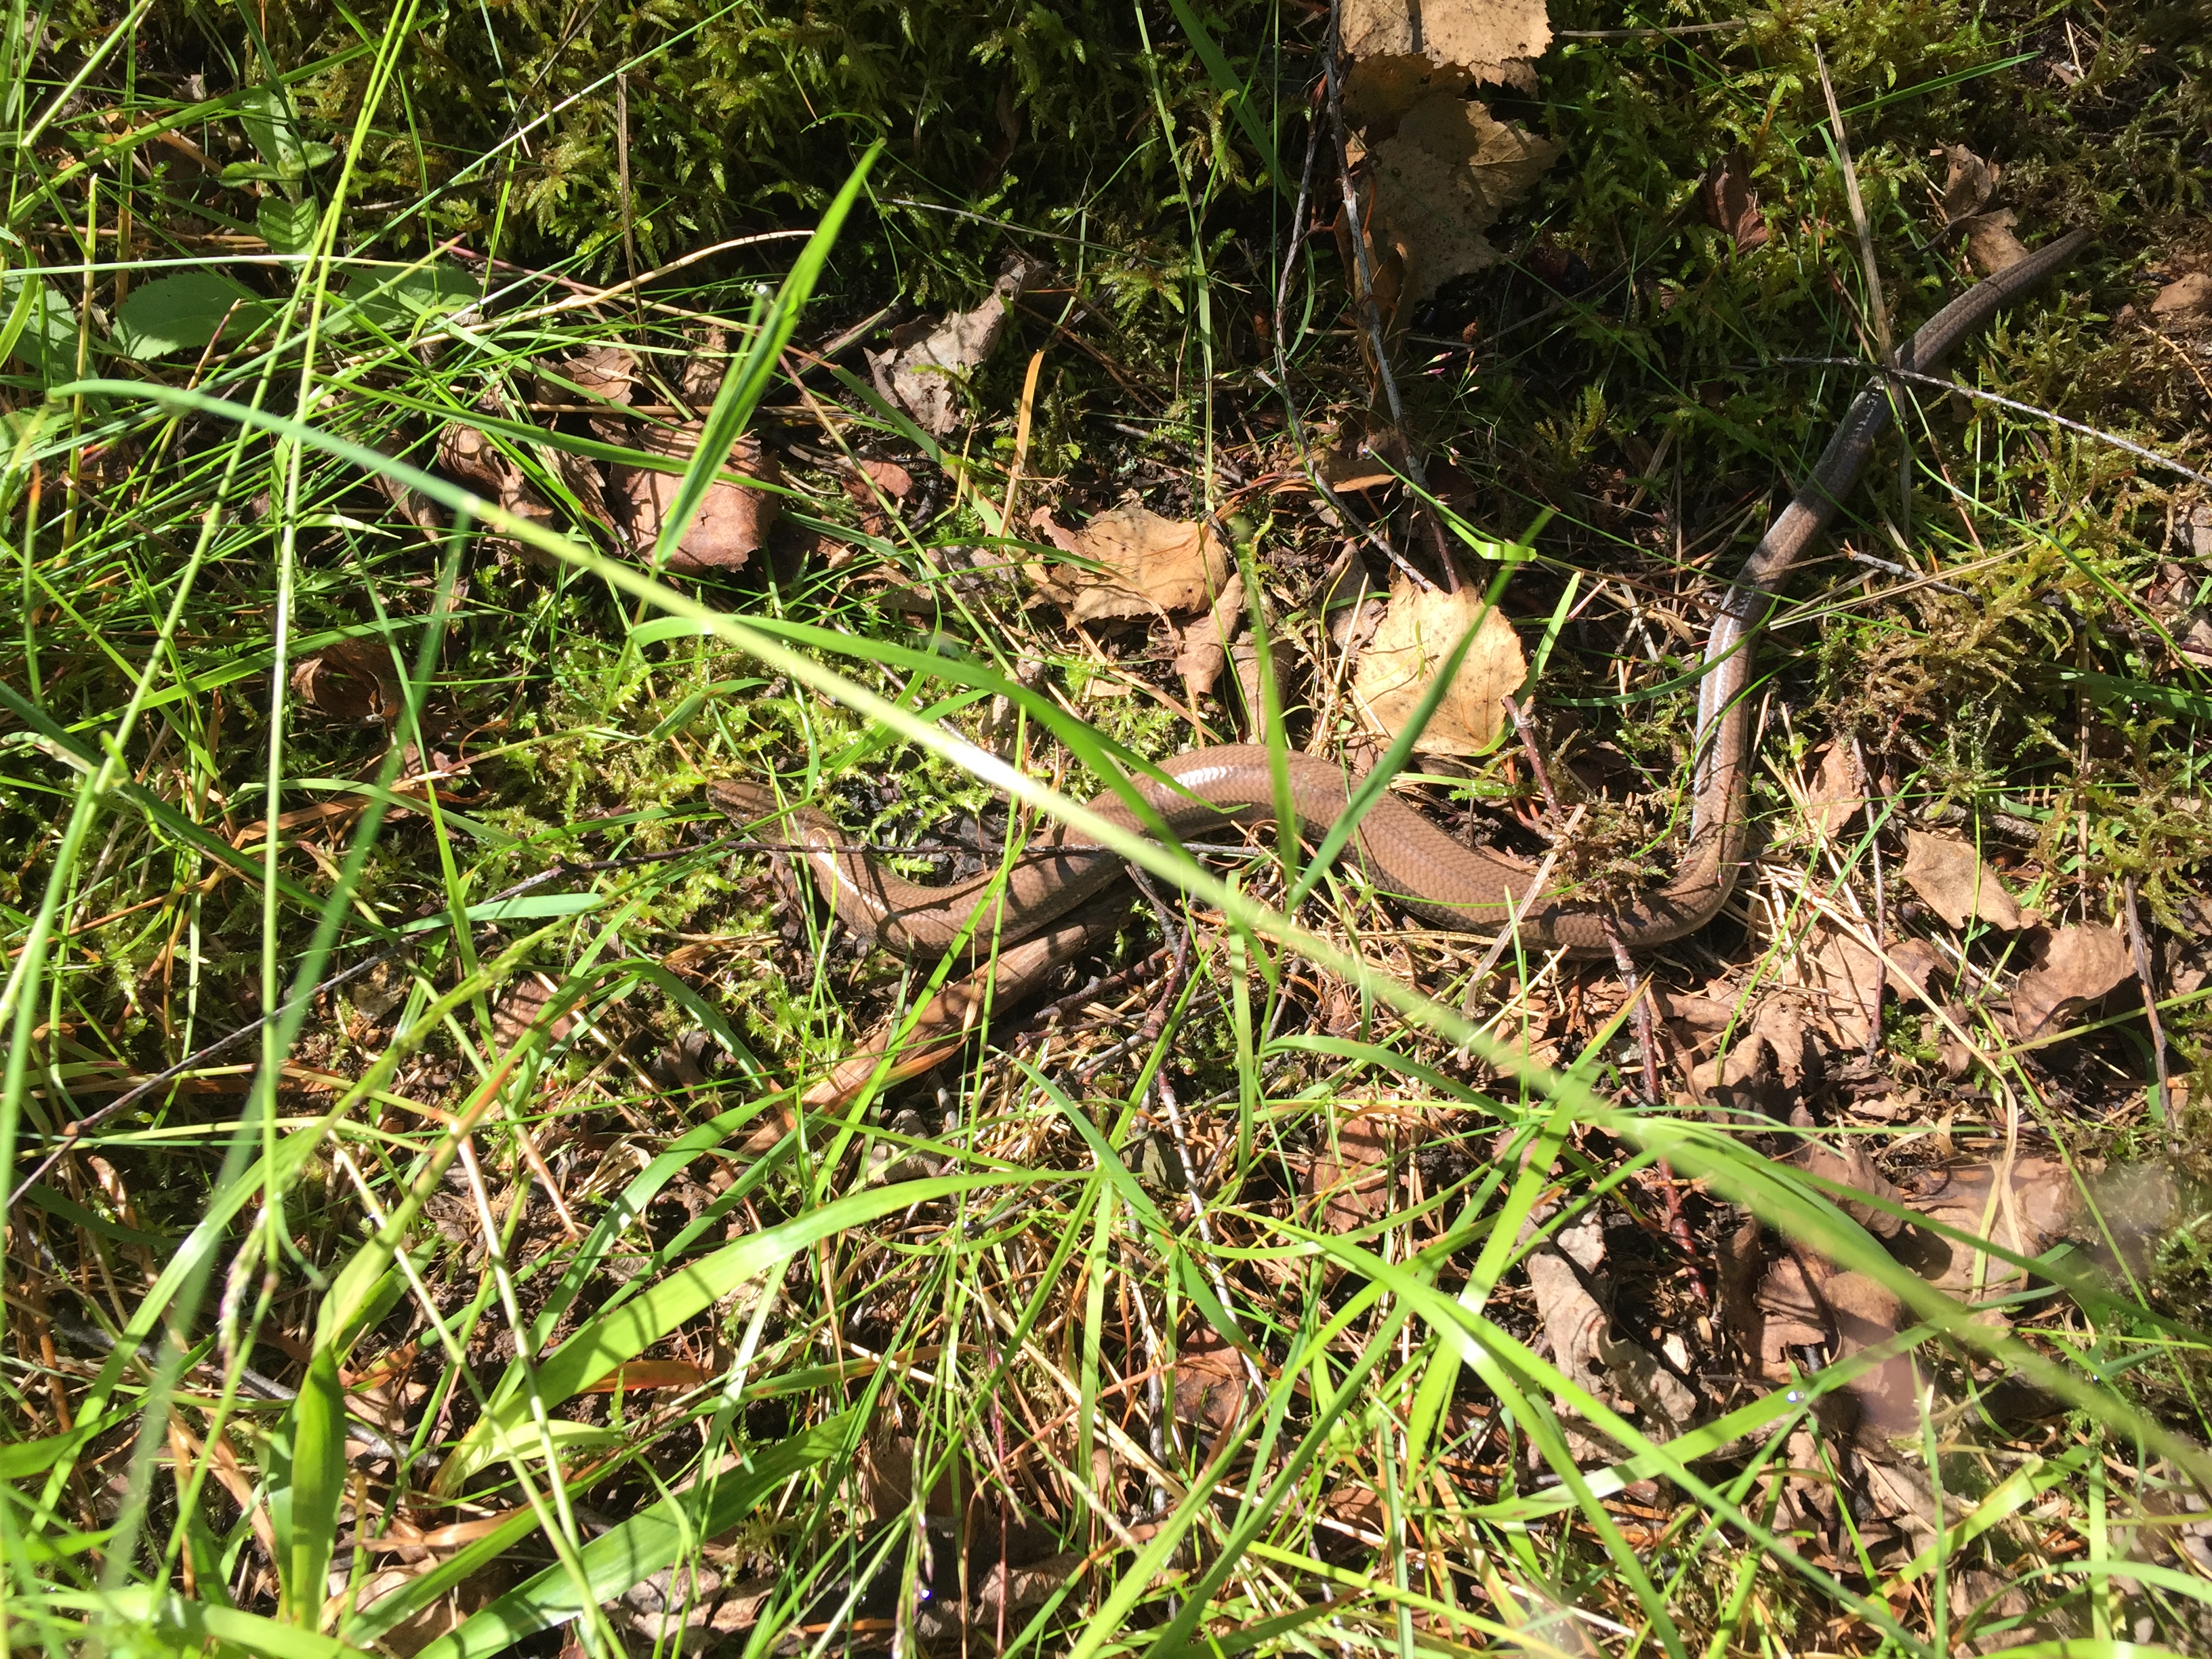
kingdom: Animalia
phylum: Chordata
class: Squamata
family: Anguidae
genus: Anguis
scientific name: Anguis colchica
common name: Slow worm
